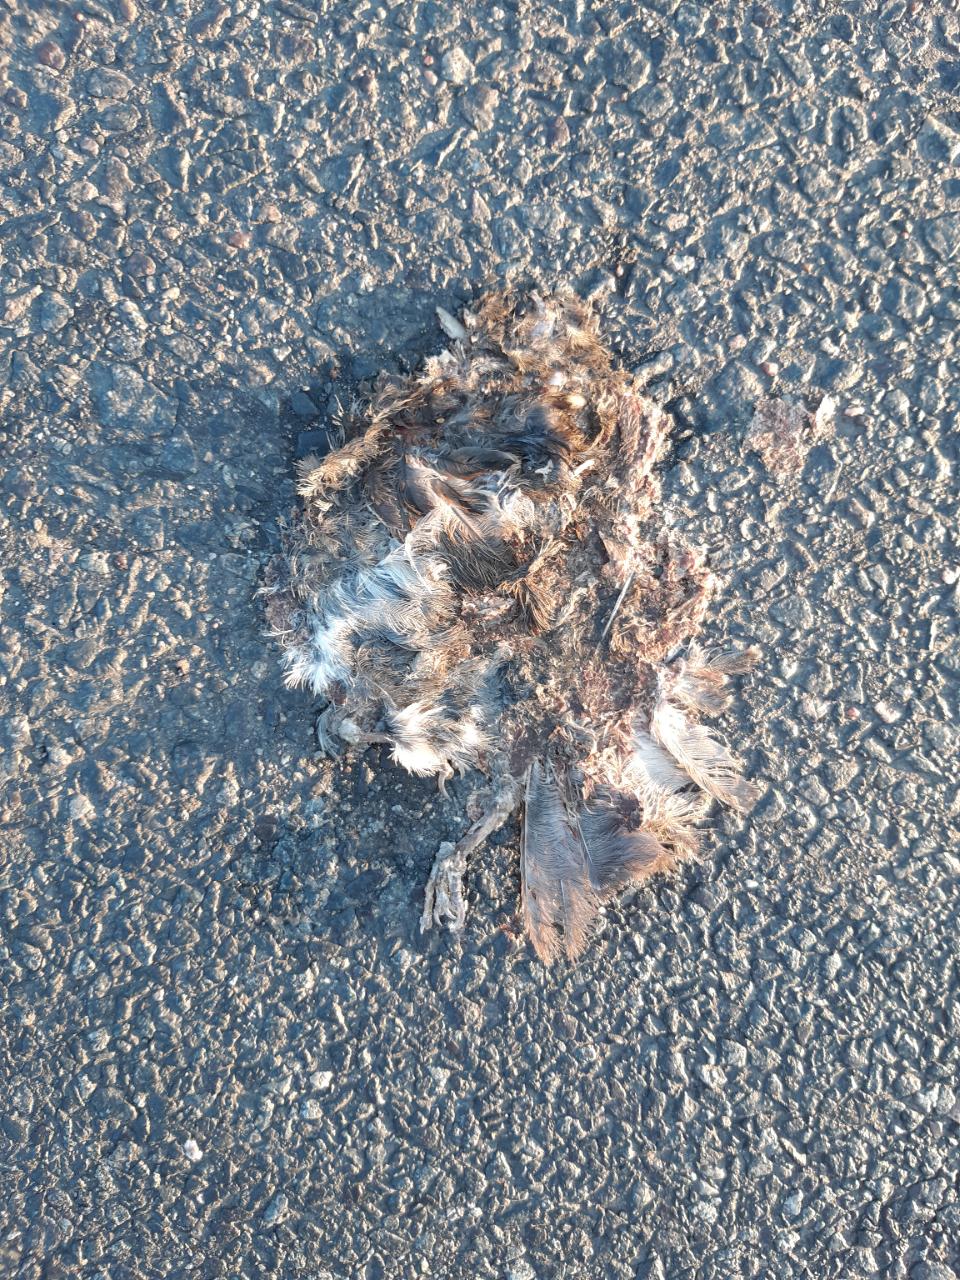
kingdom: Animalia
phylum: Chordata
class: Aves
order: Passeriformes
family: Passeridae
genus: Passer
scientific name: Passer
